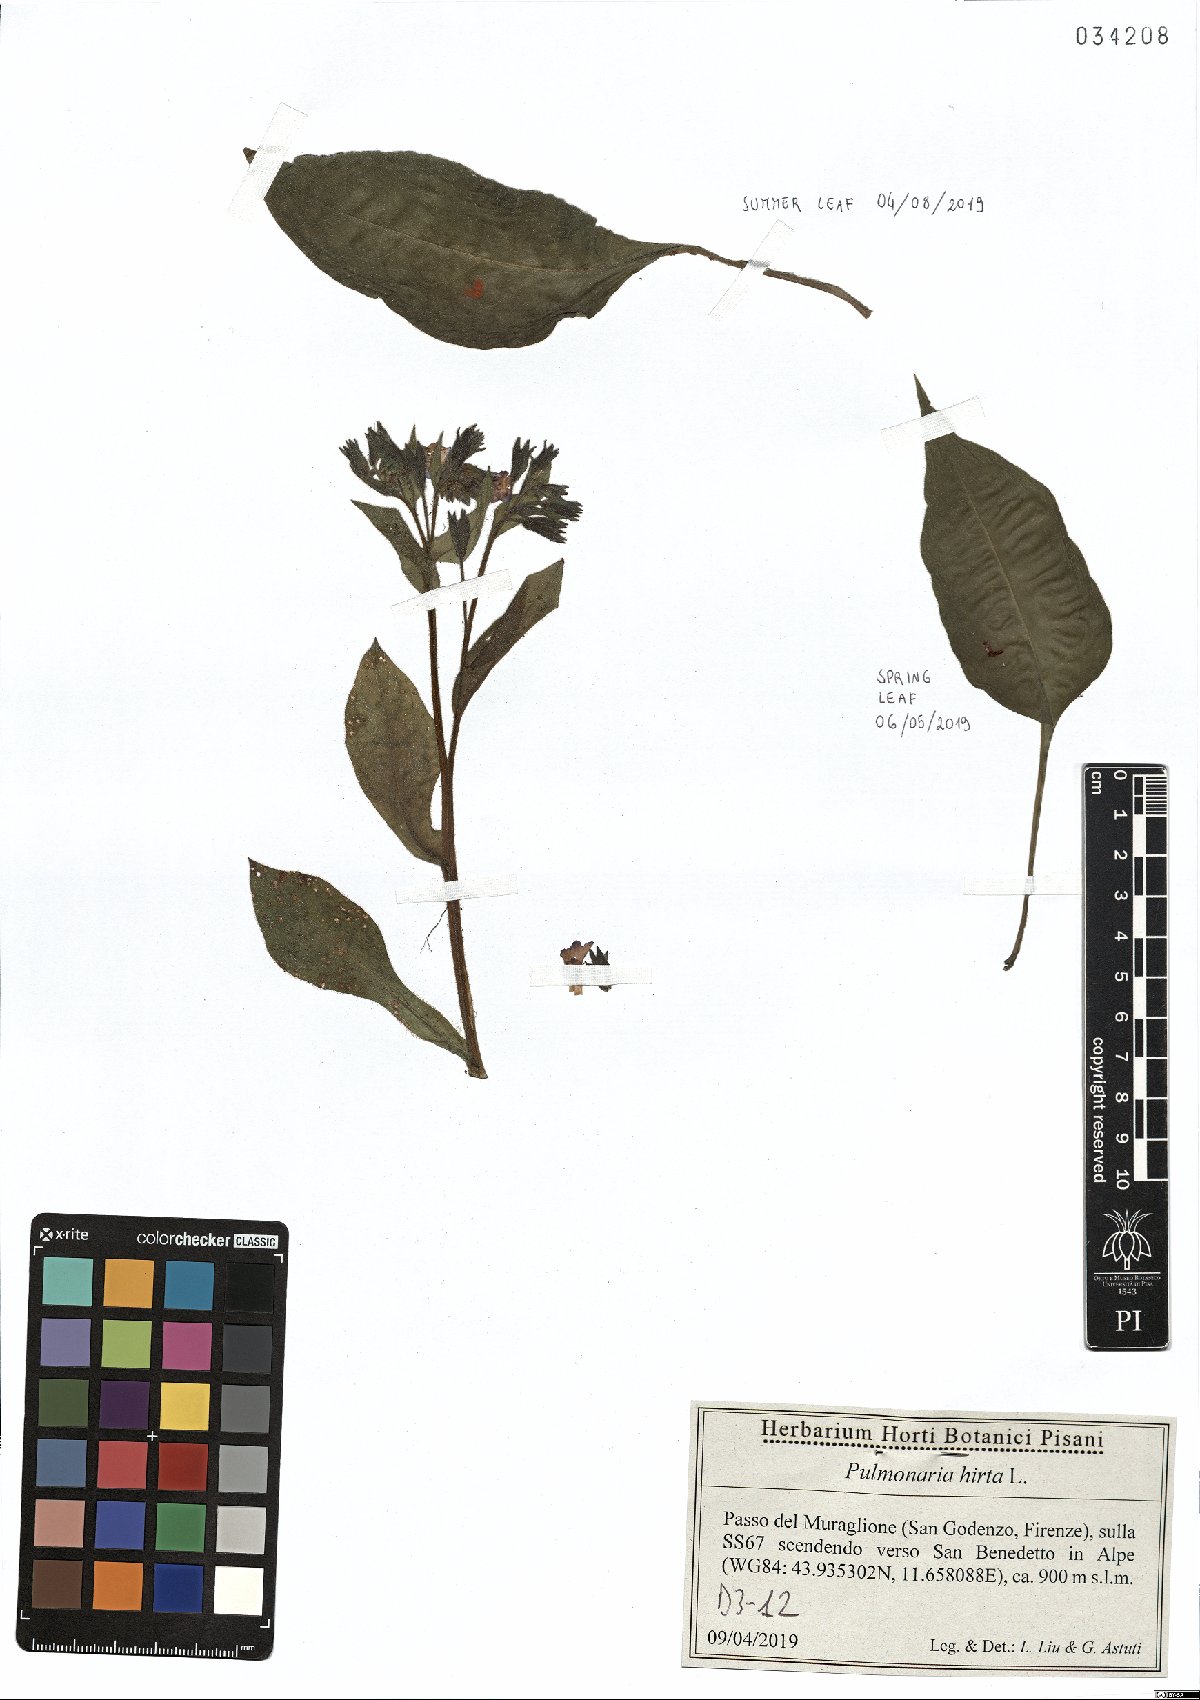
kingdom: Plantae
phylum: Tracheophyta
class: Magnoliopsida
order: Boraginales
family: Boraginaceae
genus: Pulmonaria
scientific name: Pulmonaria hirta
